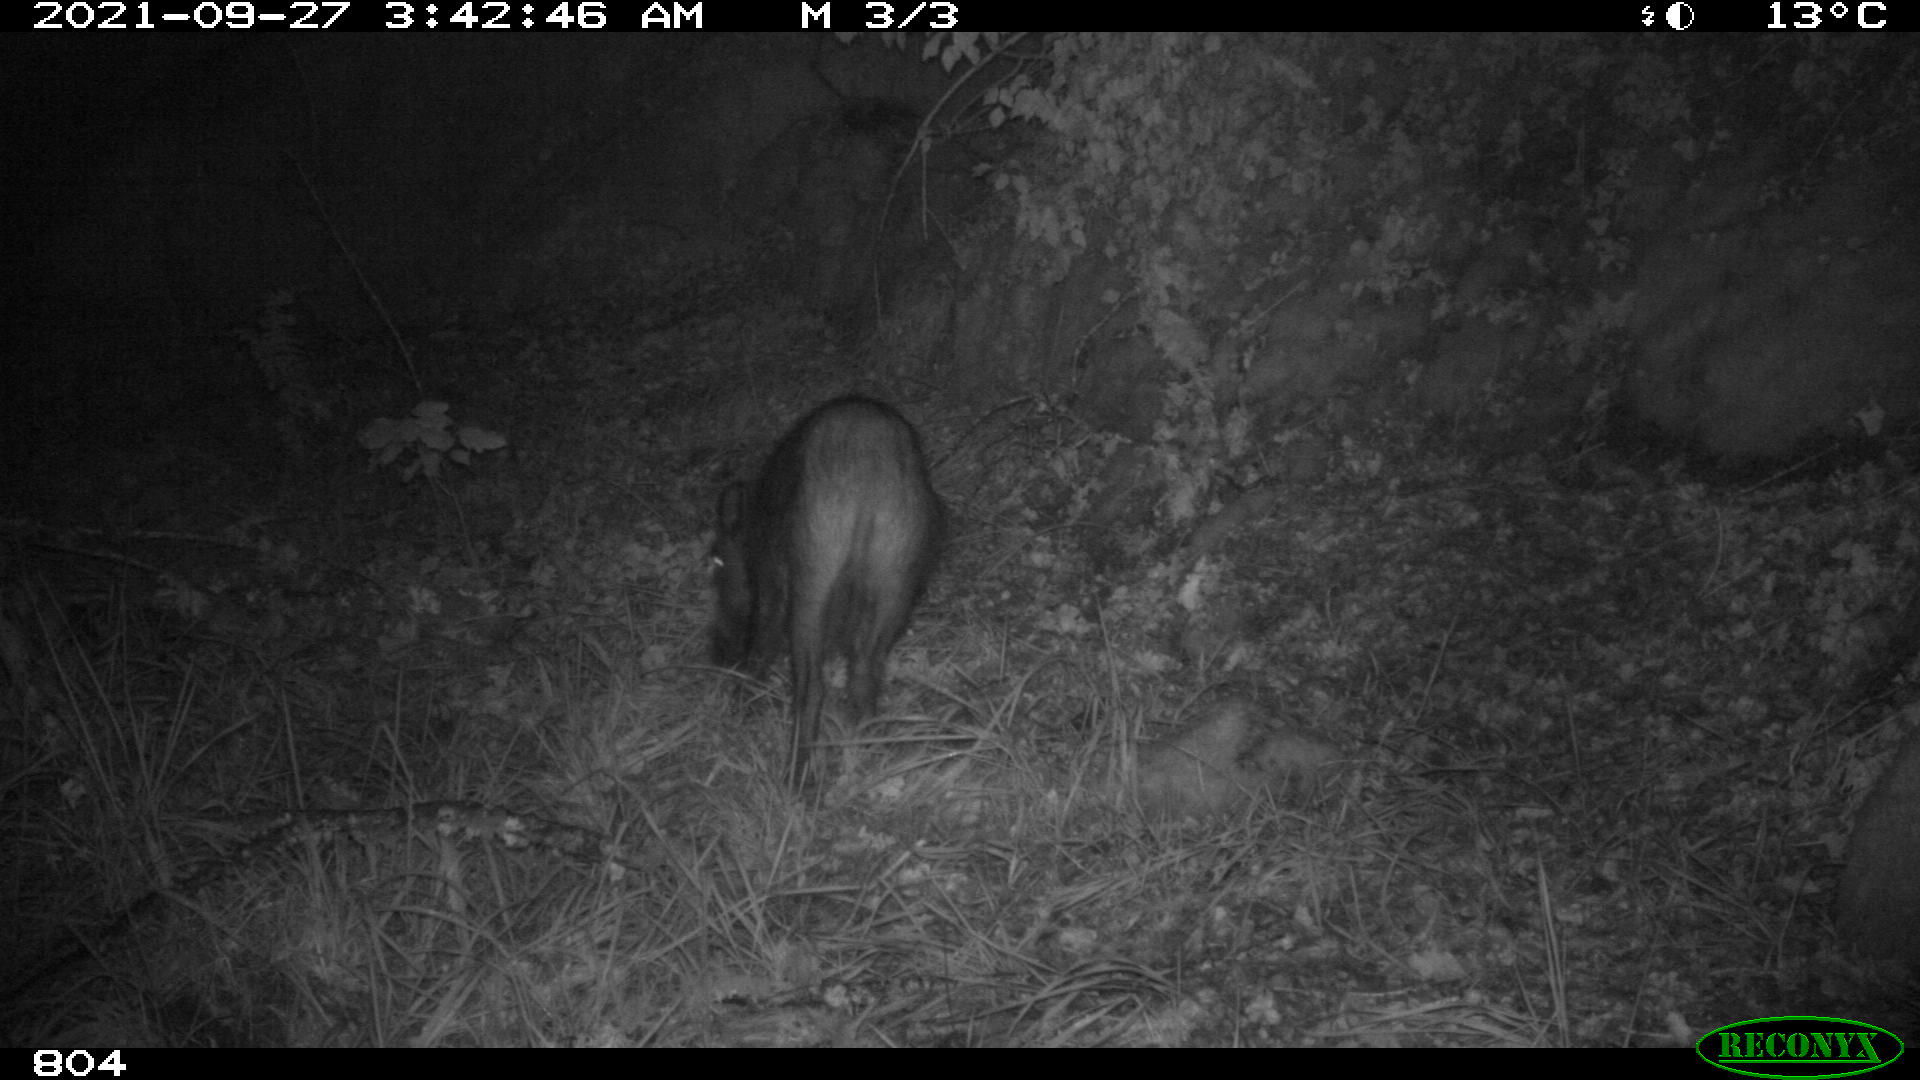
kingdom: Animalia
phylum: Chordata
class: Mammalia
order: Artiodactyla
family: Suidae
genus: Sus
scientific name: Sus scrofa
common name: Wild boar
